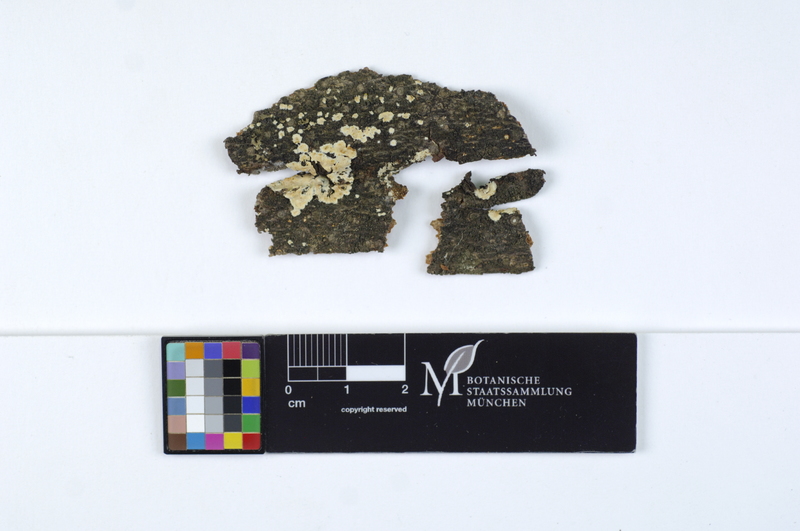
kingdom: Fungi
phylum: Basidiomycota
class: Agaricomycetes
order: Agaricales
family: Physalacriaceae
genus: Cylindrobasidium
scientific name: Cylindrobasidium evolvens
